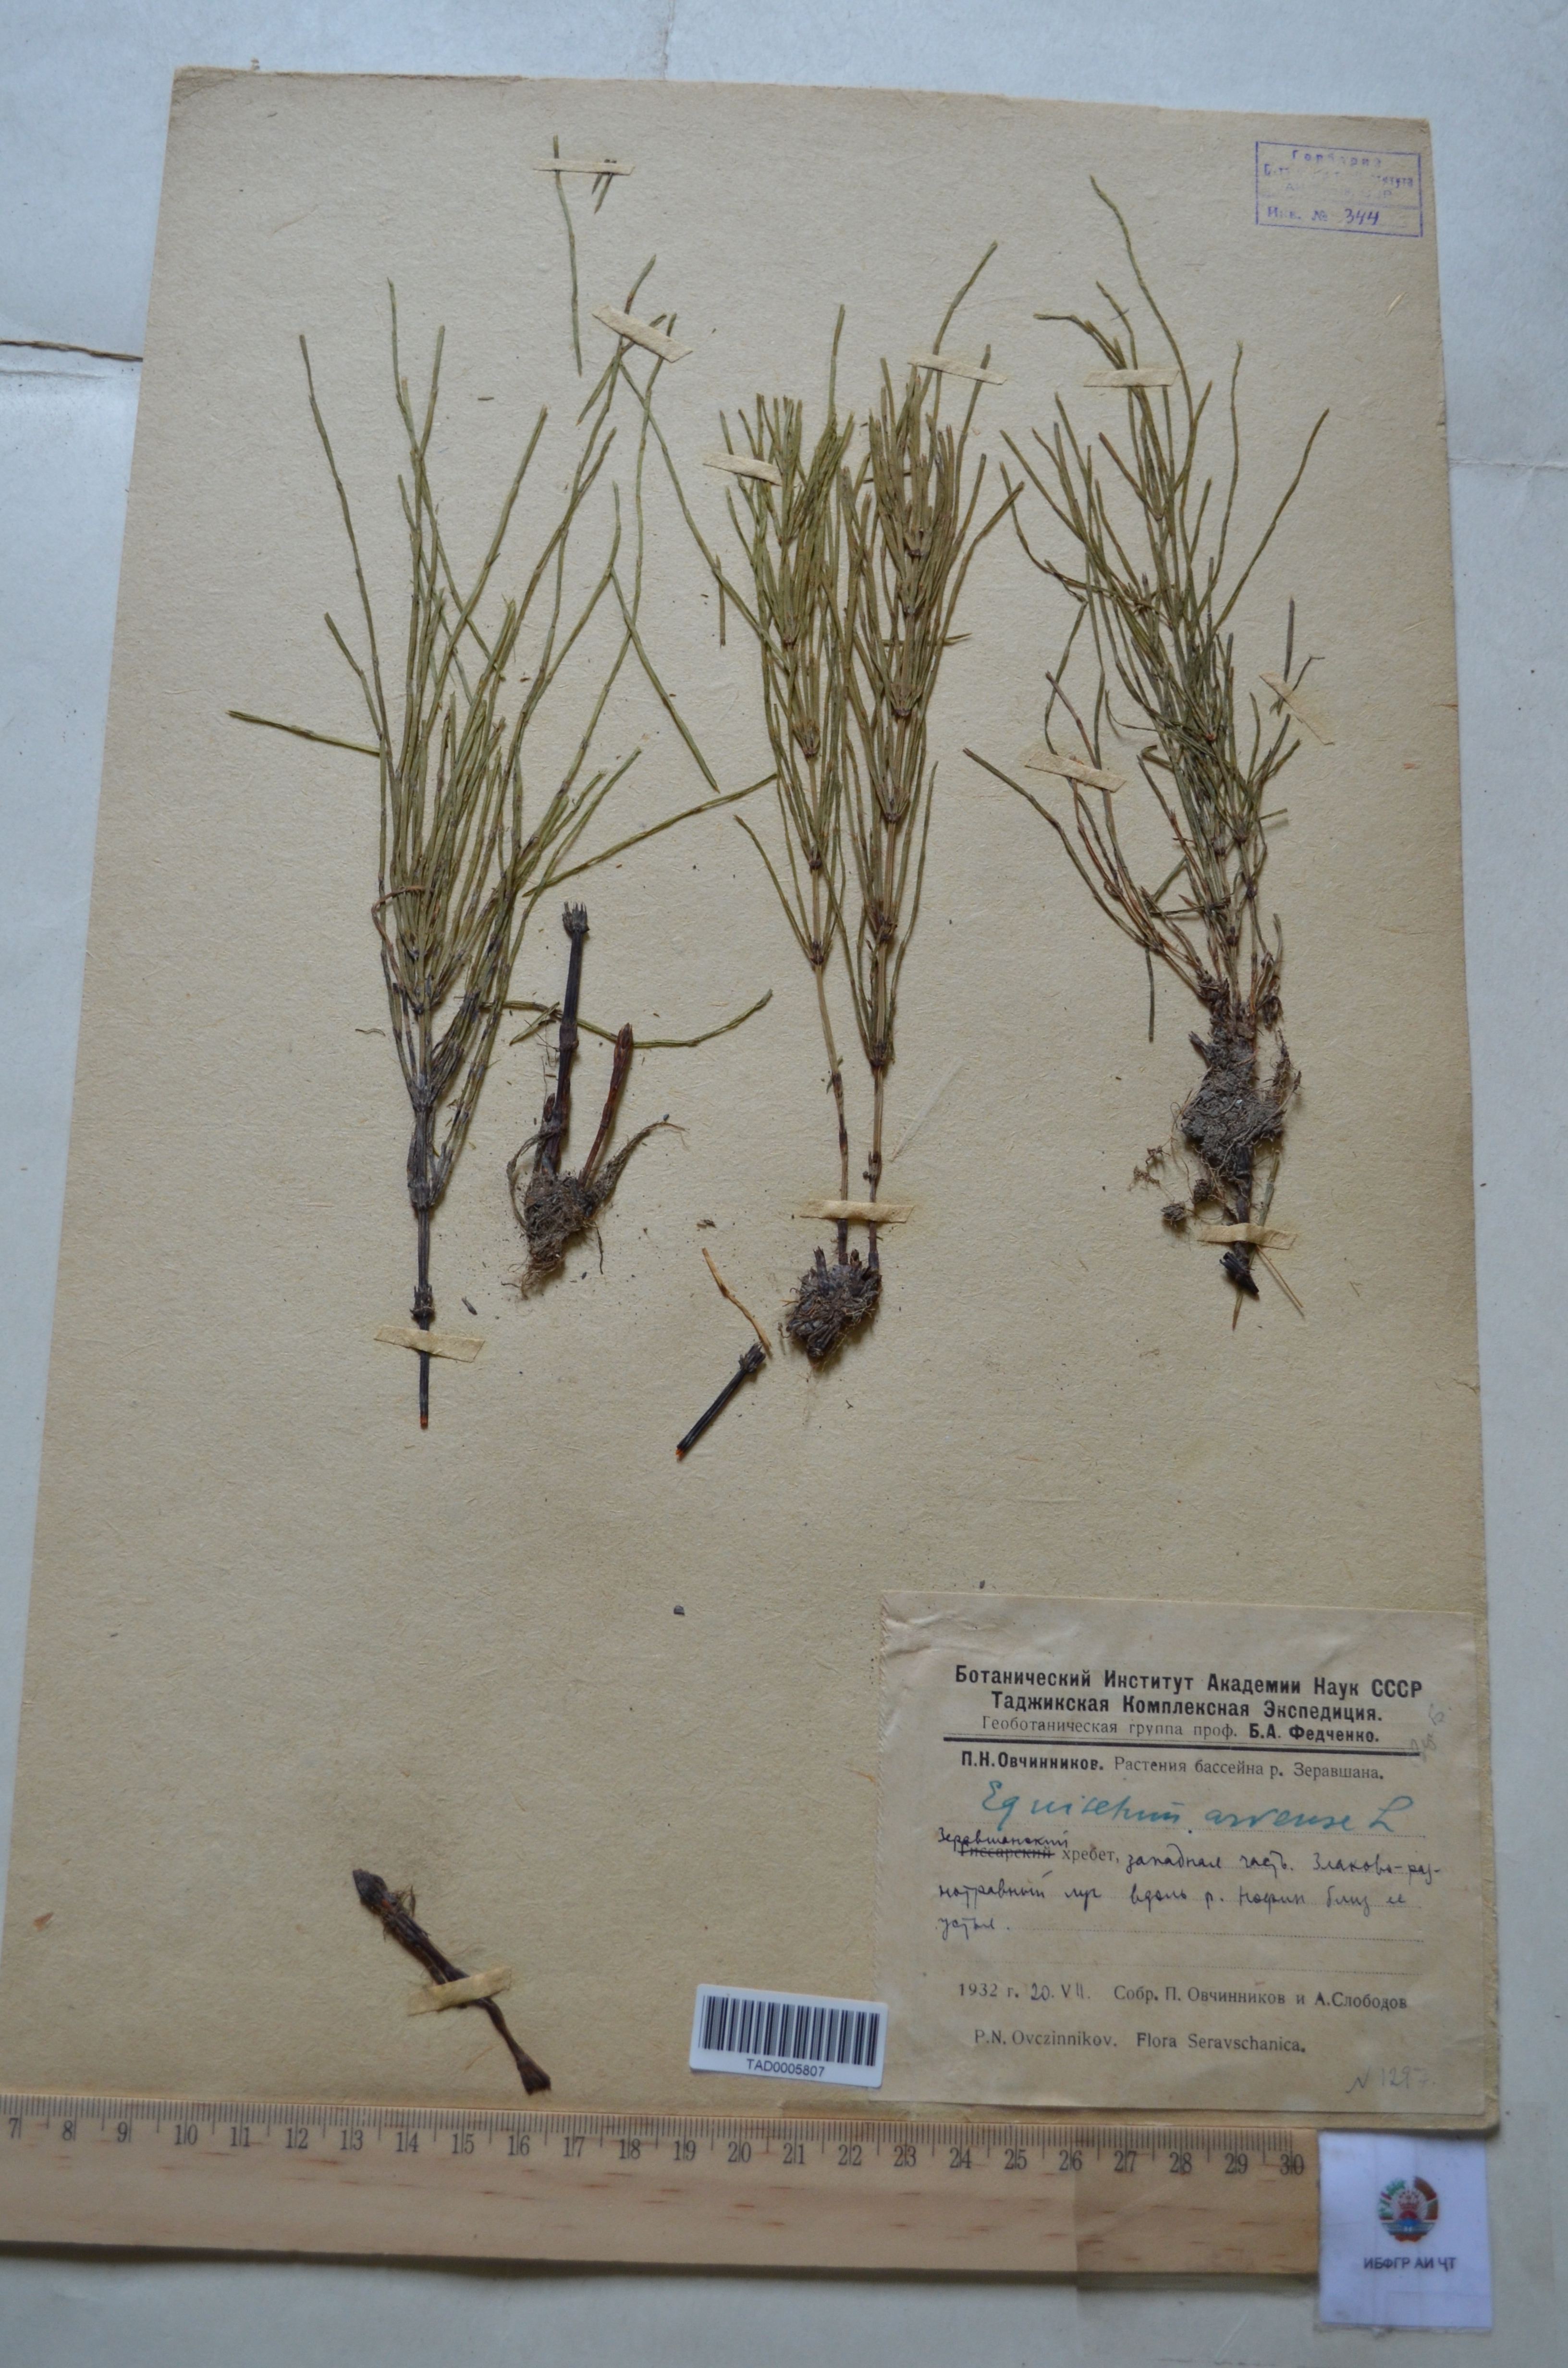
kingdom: Plantae
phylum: Tracheophyta
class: Polypodiopsida
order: Equisetales
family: Equisetaceae
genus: Equisetum
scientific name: Equisetum arvense
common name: Field horsetail
